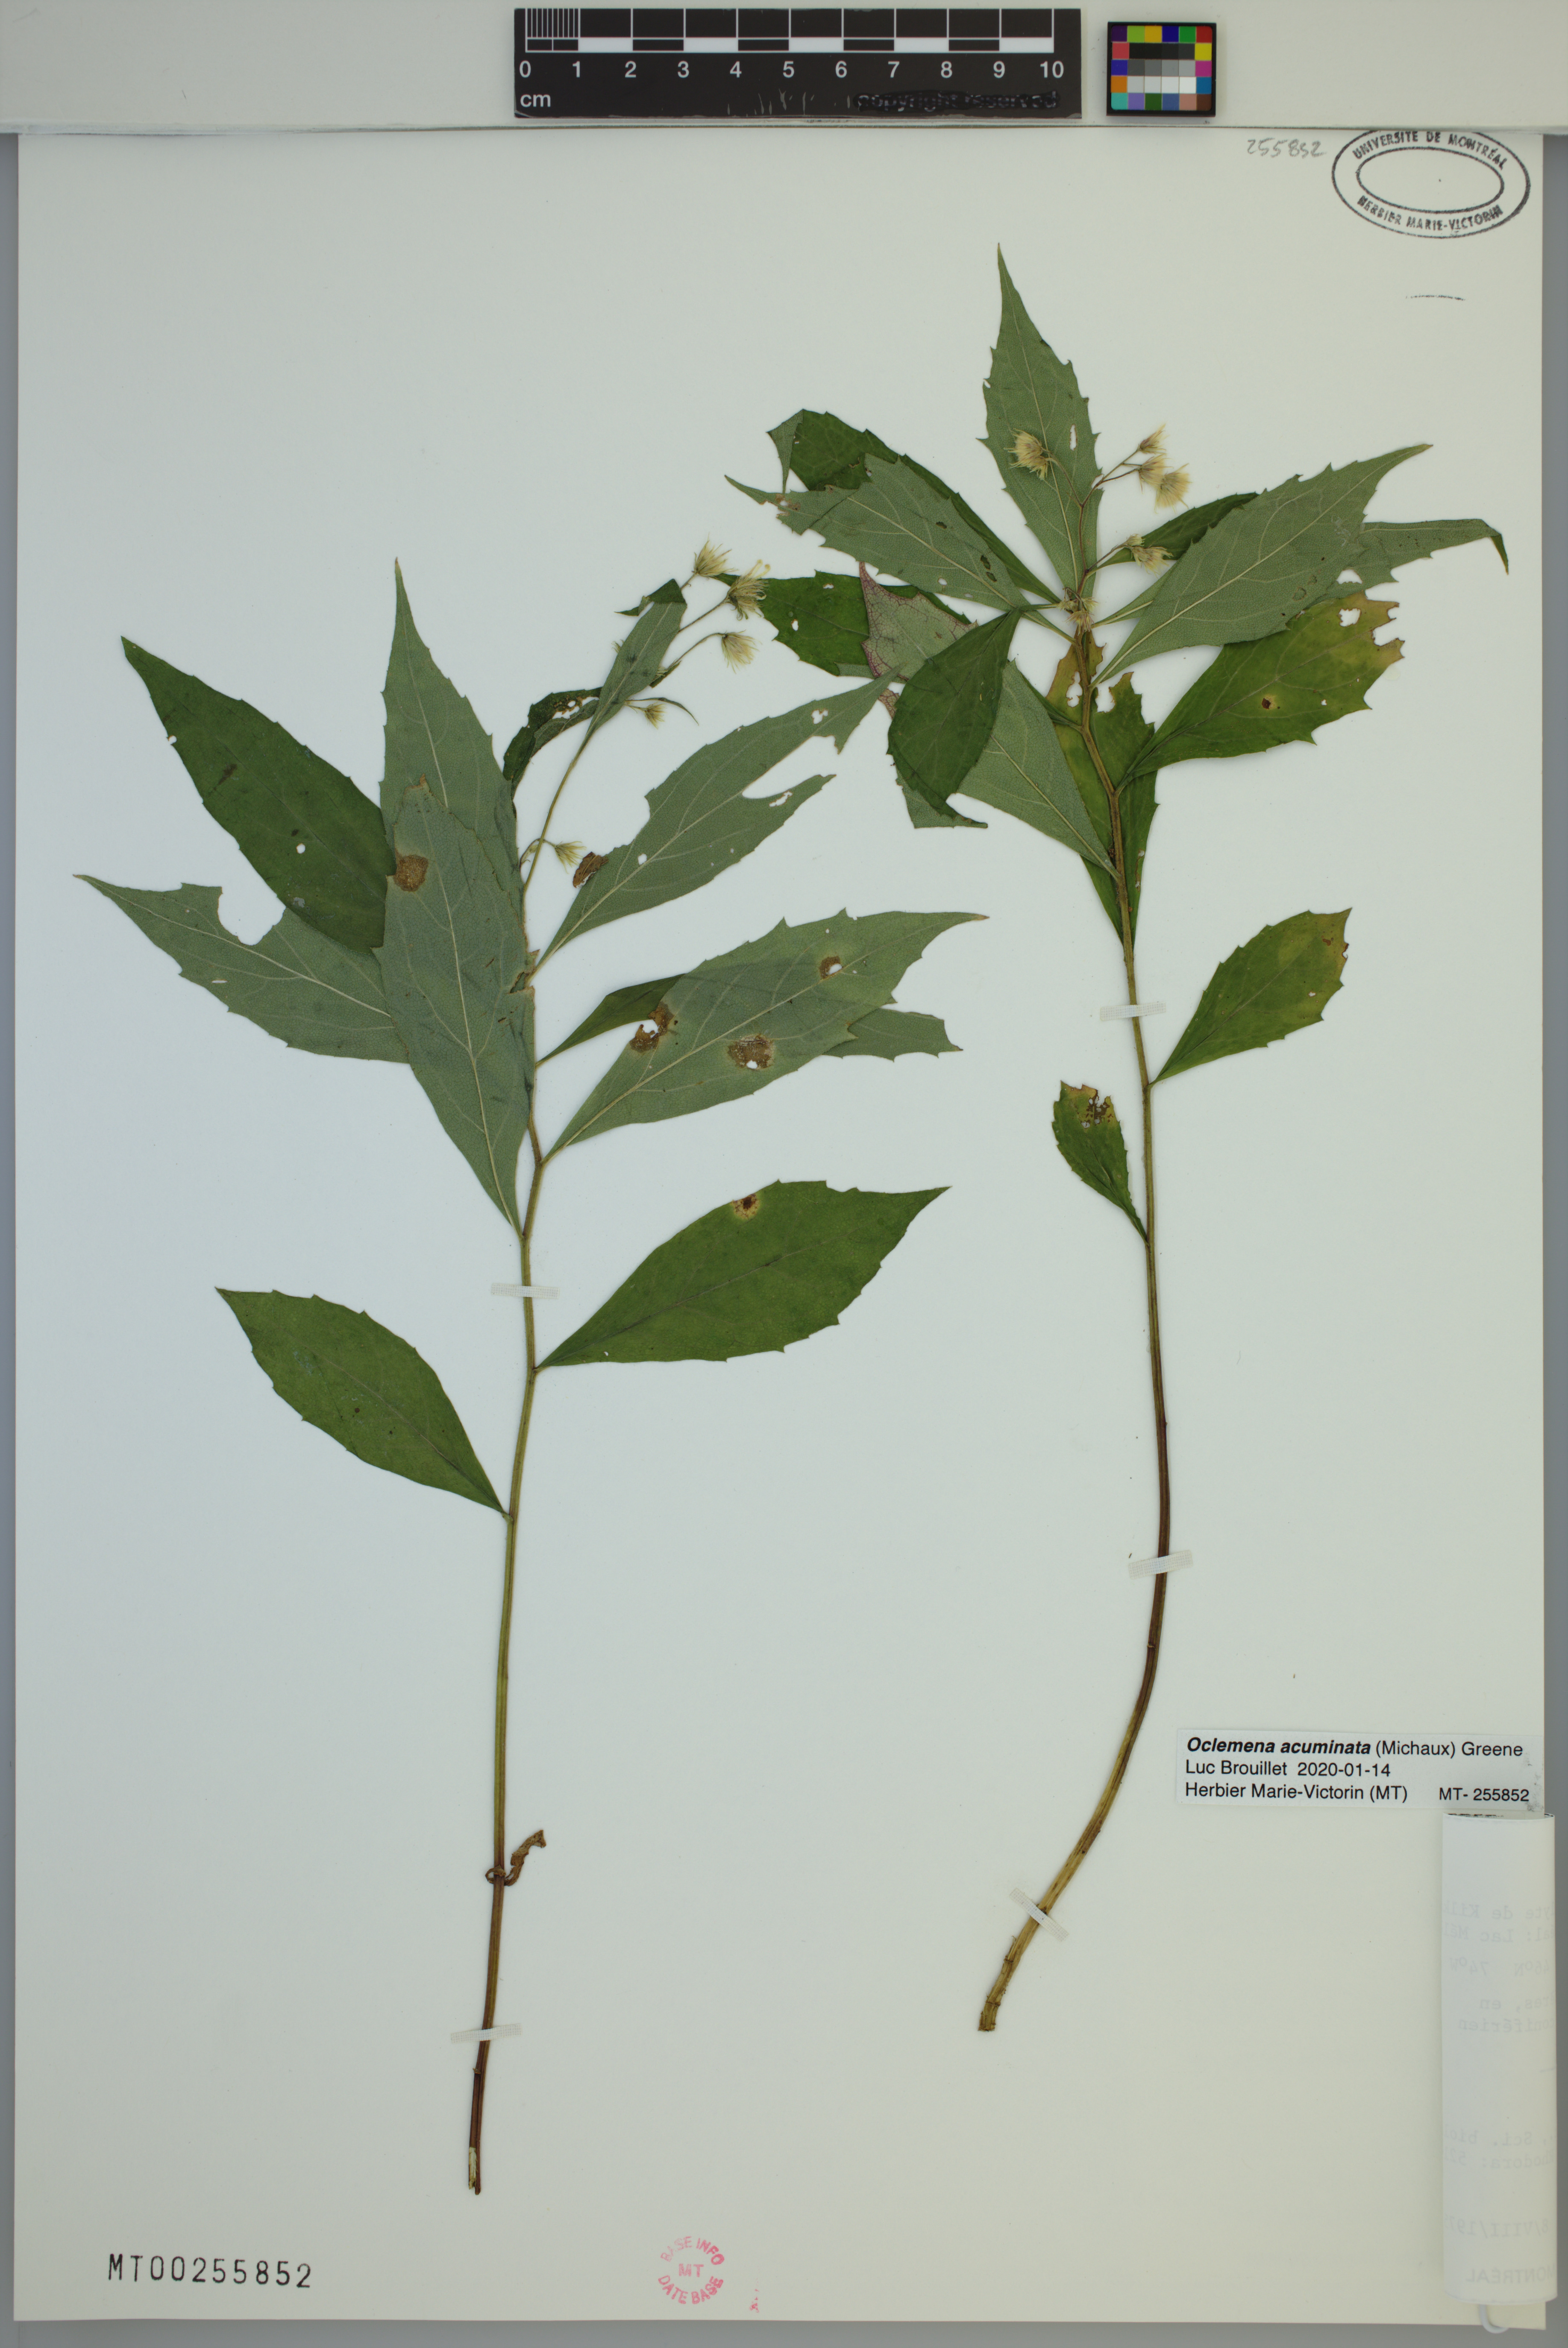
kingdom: Plantae
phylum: Tracheophyta
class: Magnoliopsida
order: Asterales
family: Asteraceae
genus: Oclemena
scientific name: Oclemena acuminata
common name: Mountain aster
